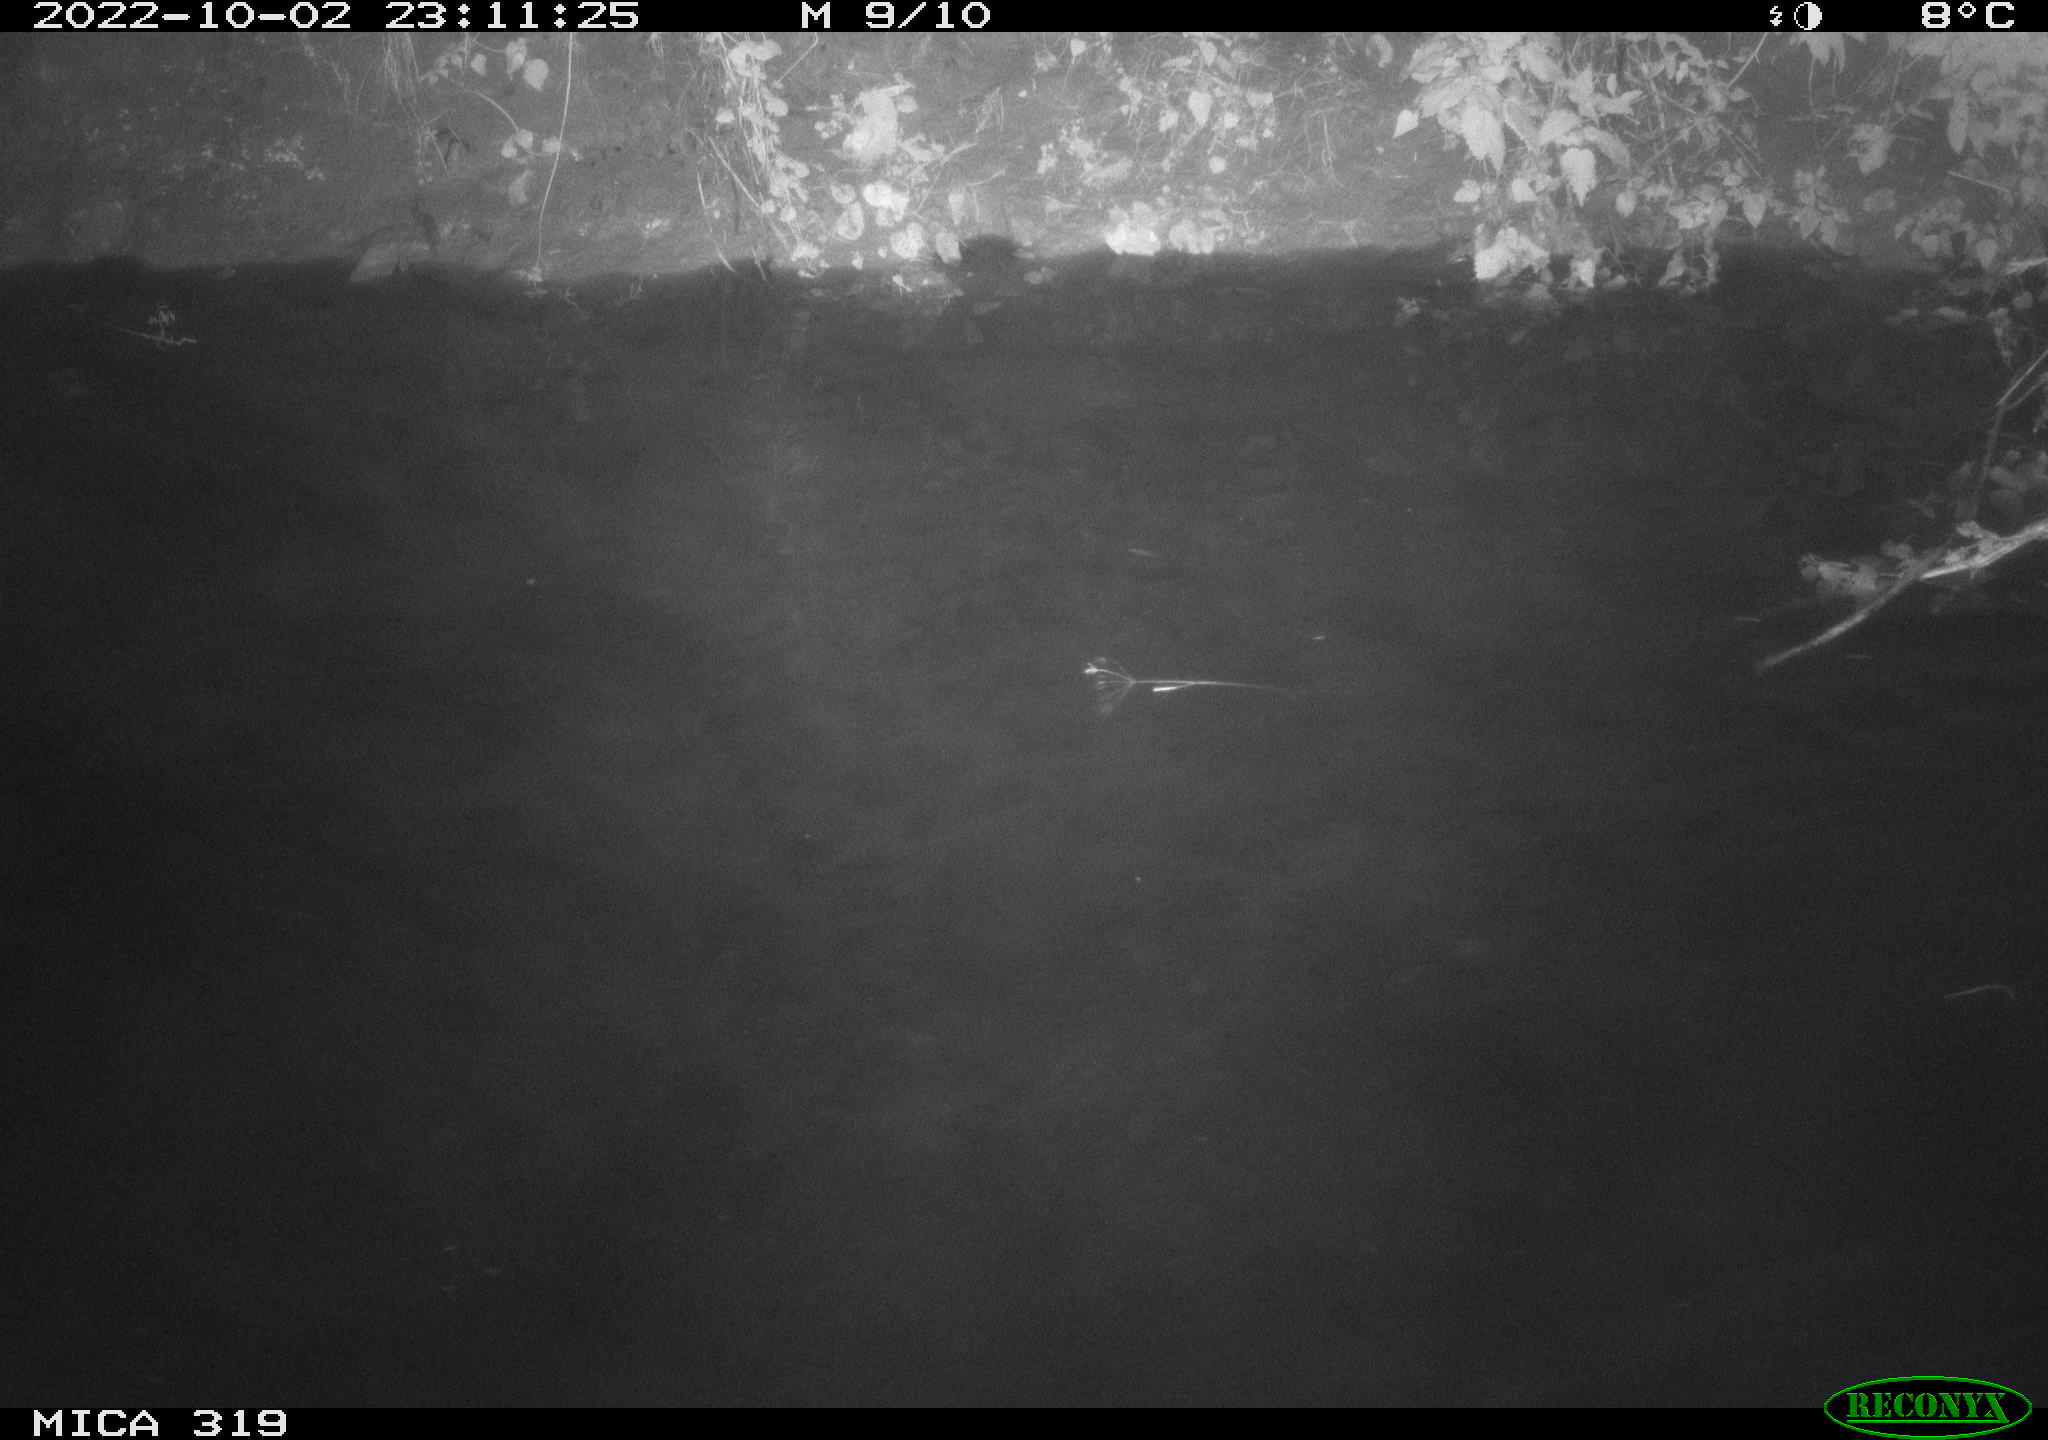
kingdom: Animalia
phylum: Chordata
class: Aves
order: Anseriformes
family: Anatidae
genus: Anas
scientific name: Anas
